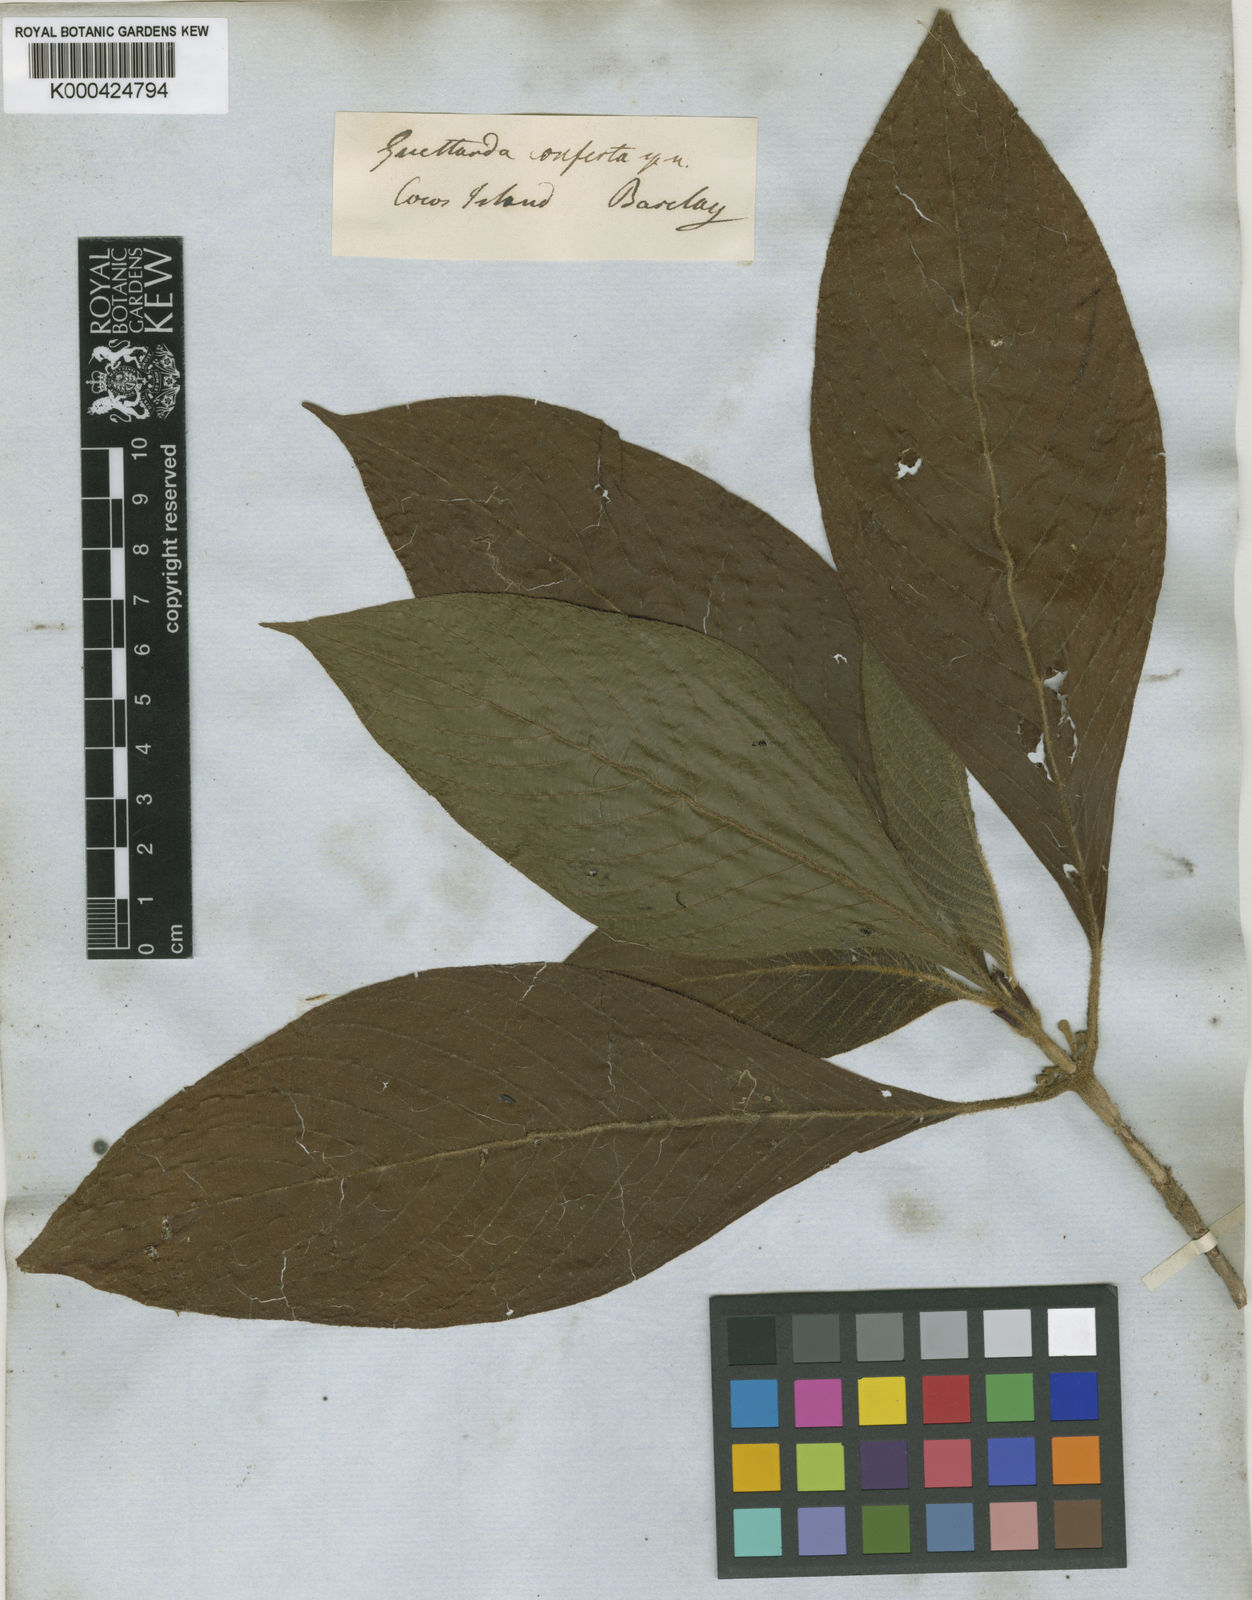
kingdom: Plantae
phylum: Tracheophyta
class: Magnoliopsida
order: Gentianales
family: Rubiaceae
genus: Tournefortiopsis
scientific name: Tournefortiopsis conferta
